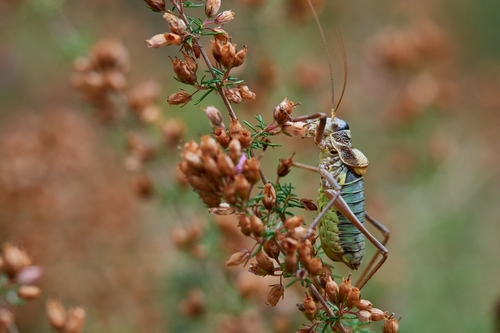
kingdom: Animalia
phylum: Arthropoda
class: Insecta
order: Orthoptera
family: Tettigoniidae
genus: Lluciapomaresius
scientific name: Lluciapomaresius asturiensis
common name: Asturian saddle bush-cricket
